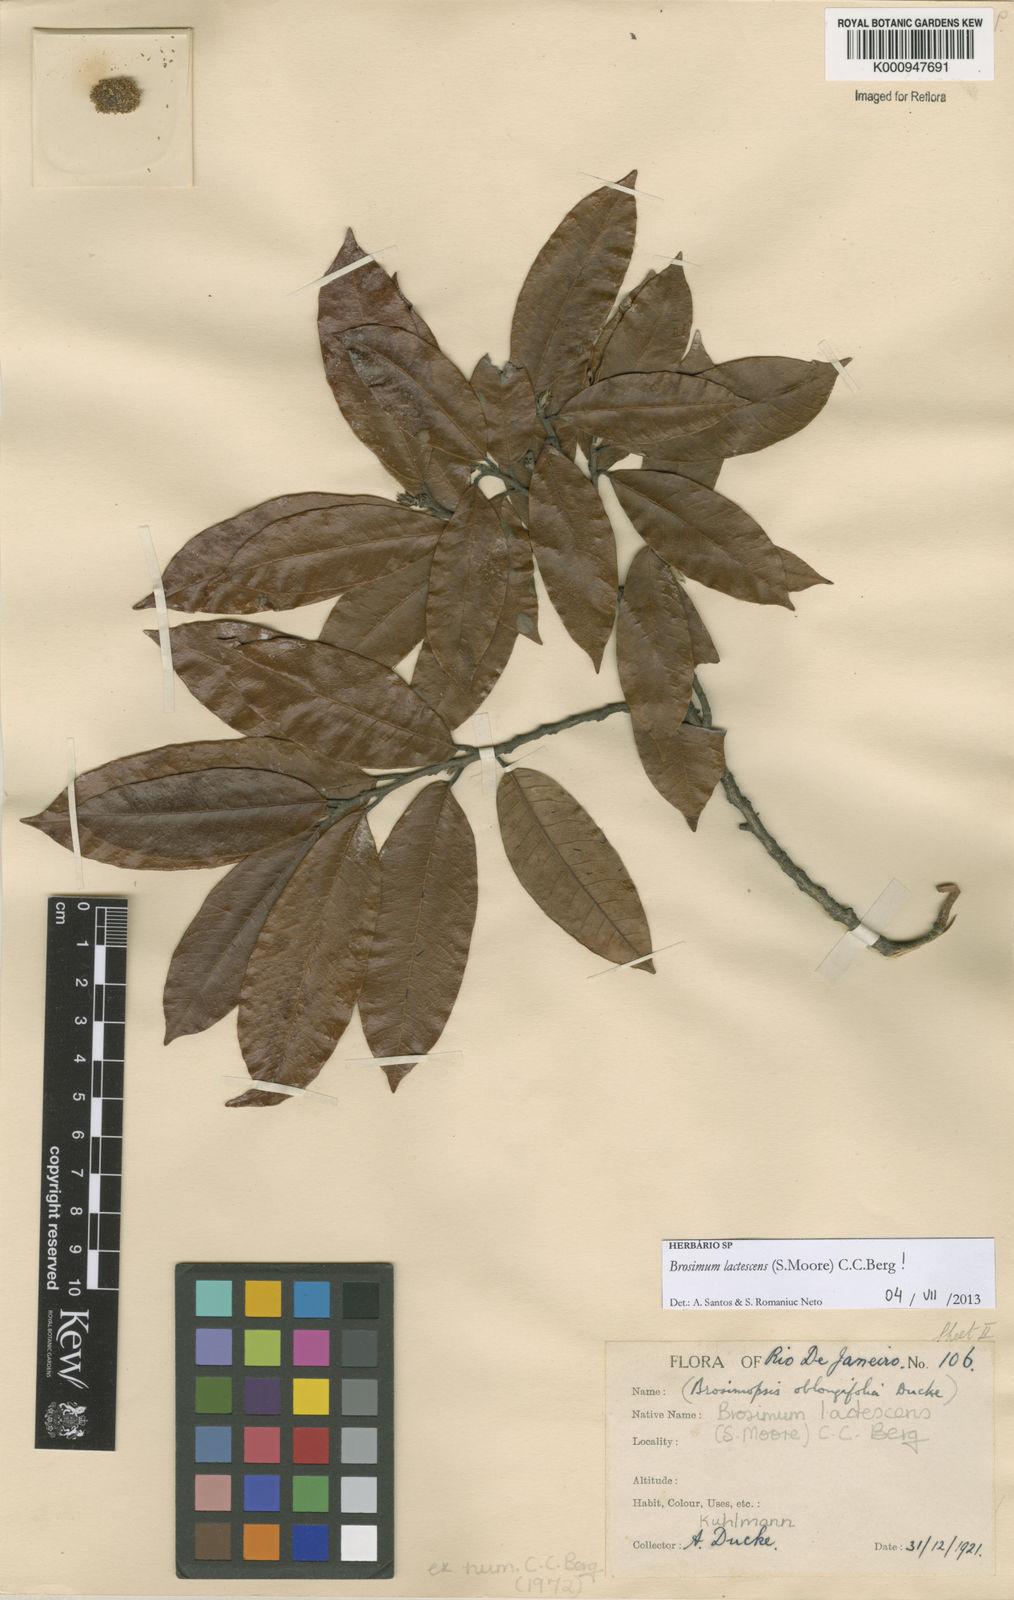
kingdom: Plantae
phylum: Tracheophyta
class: Magnoliopsida
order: Rosales
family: Moraceae
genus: Brosimum
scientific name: Brosimum lactescens
